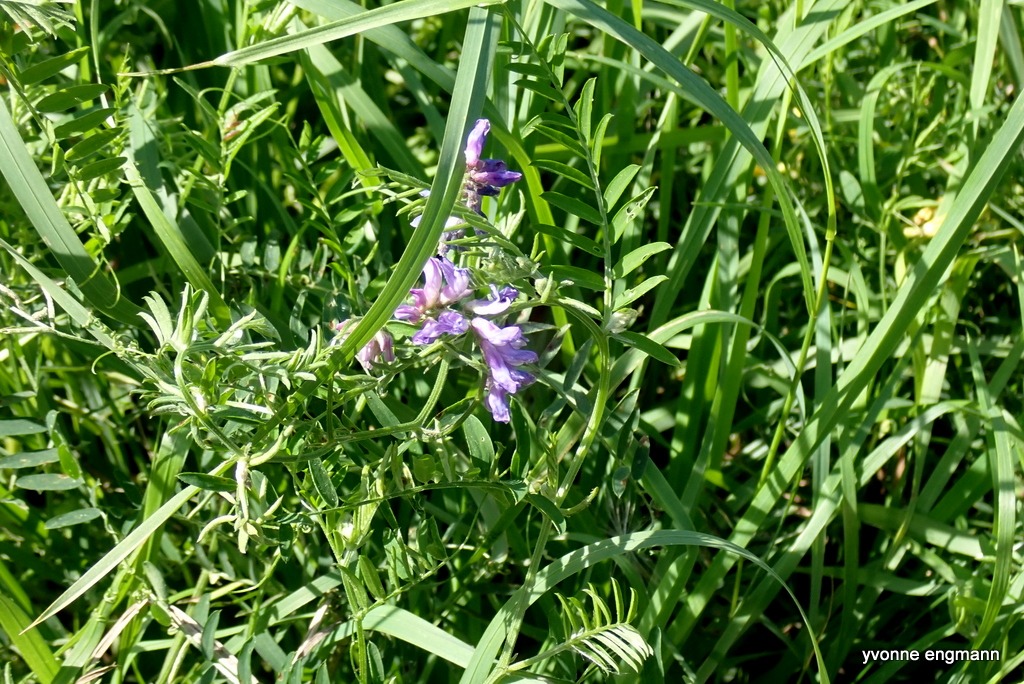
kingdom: Plantae
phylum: Tracheophyta
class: Magnoliopsida
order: Fabales
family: Fabaceae
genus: Vicia
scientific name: Vicia cracca
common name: Muse-vikke
